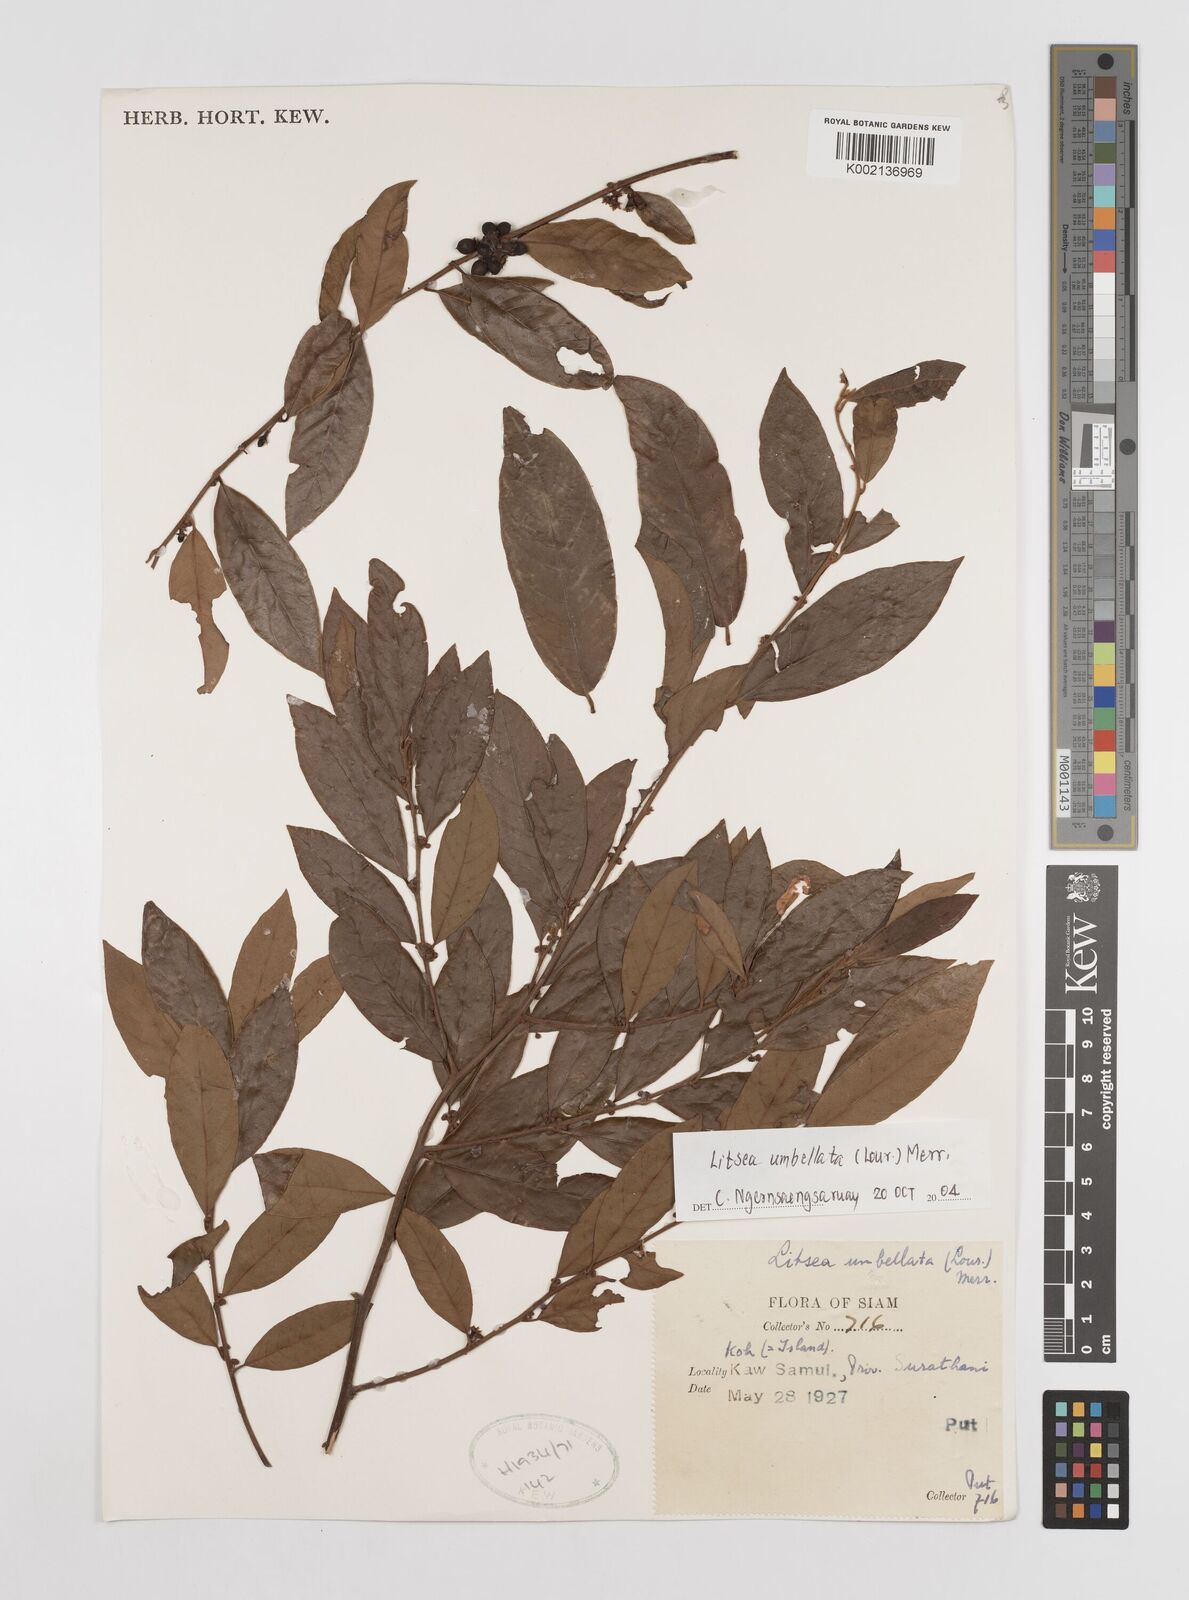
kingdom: Plantae
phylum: Tracheophyta
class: Magnoliopsida
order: Laurales
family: Lauraceae
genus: Litsea
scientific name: Litsea umbellata
